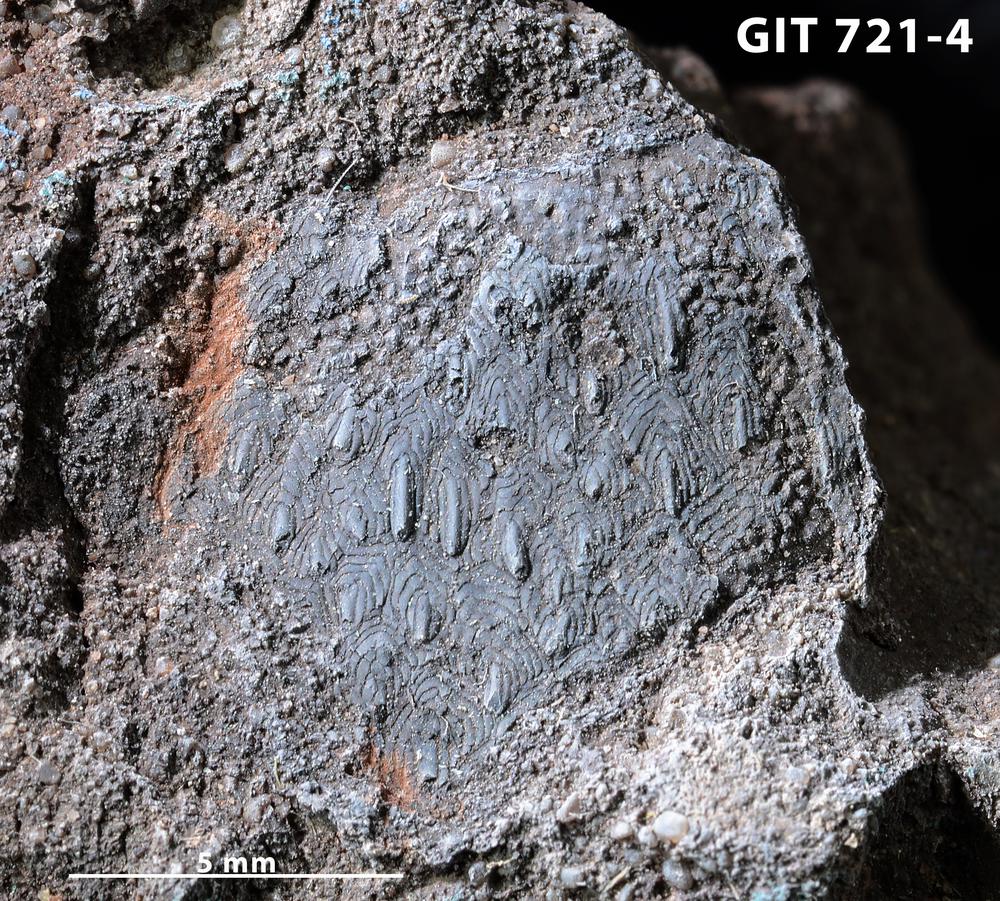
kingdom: Animalia
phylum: Chordata
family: Tolypelepididae
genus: Tolypelepis
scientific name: Tolypelepis
